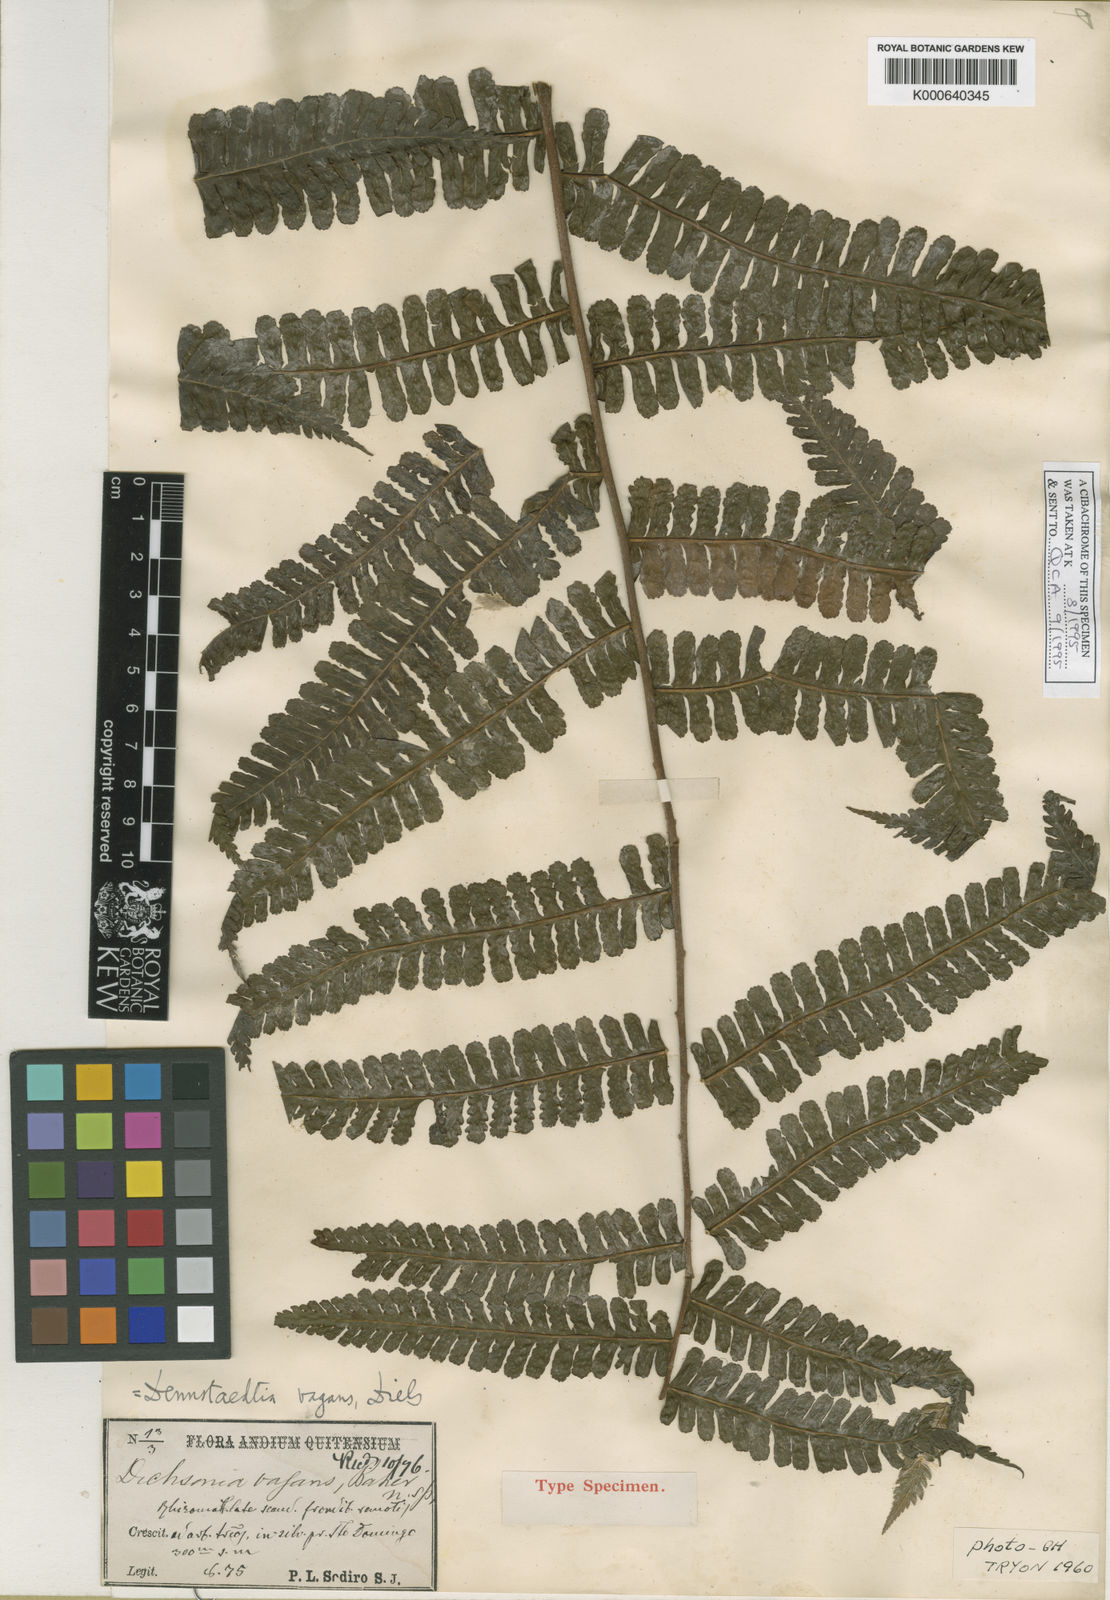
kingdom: Plantae
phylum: Tracheophyta
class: Polypodiopsida
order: Polypodiales
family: Dennstaedtiaceae
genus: Dennstaedtia
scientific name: Dennstaedtia vagans
